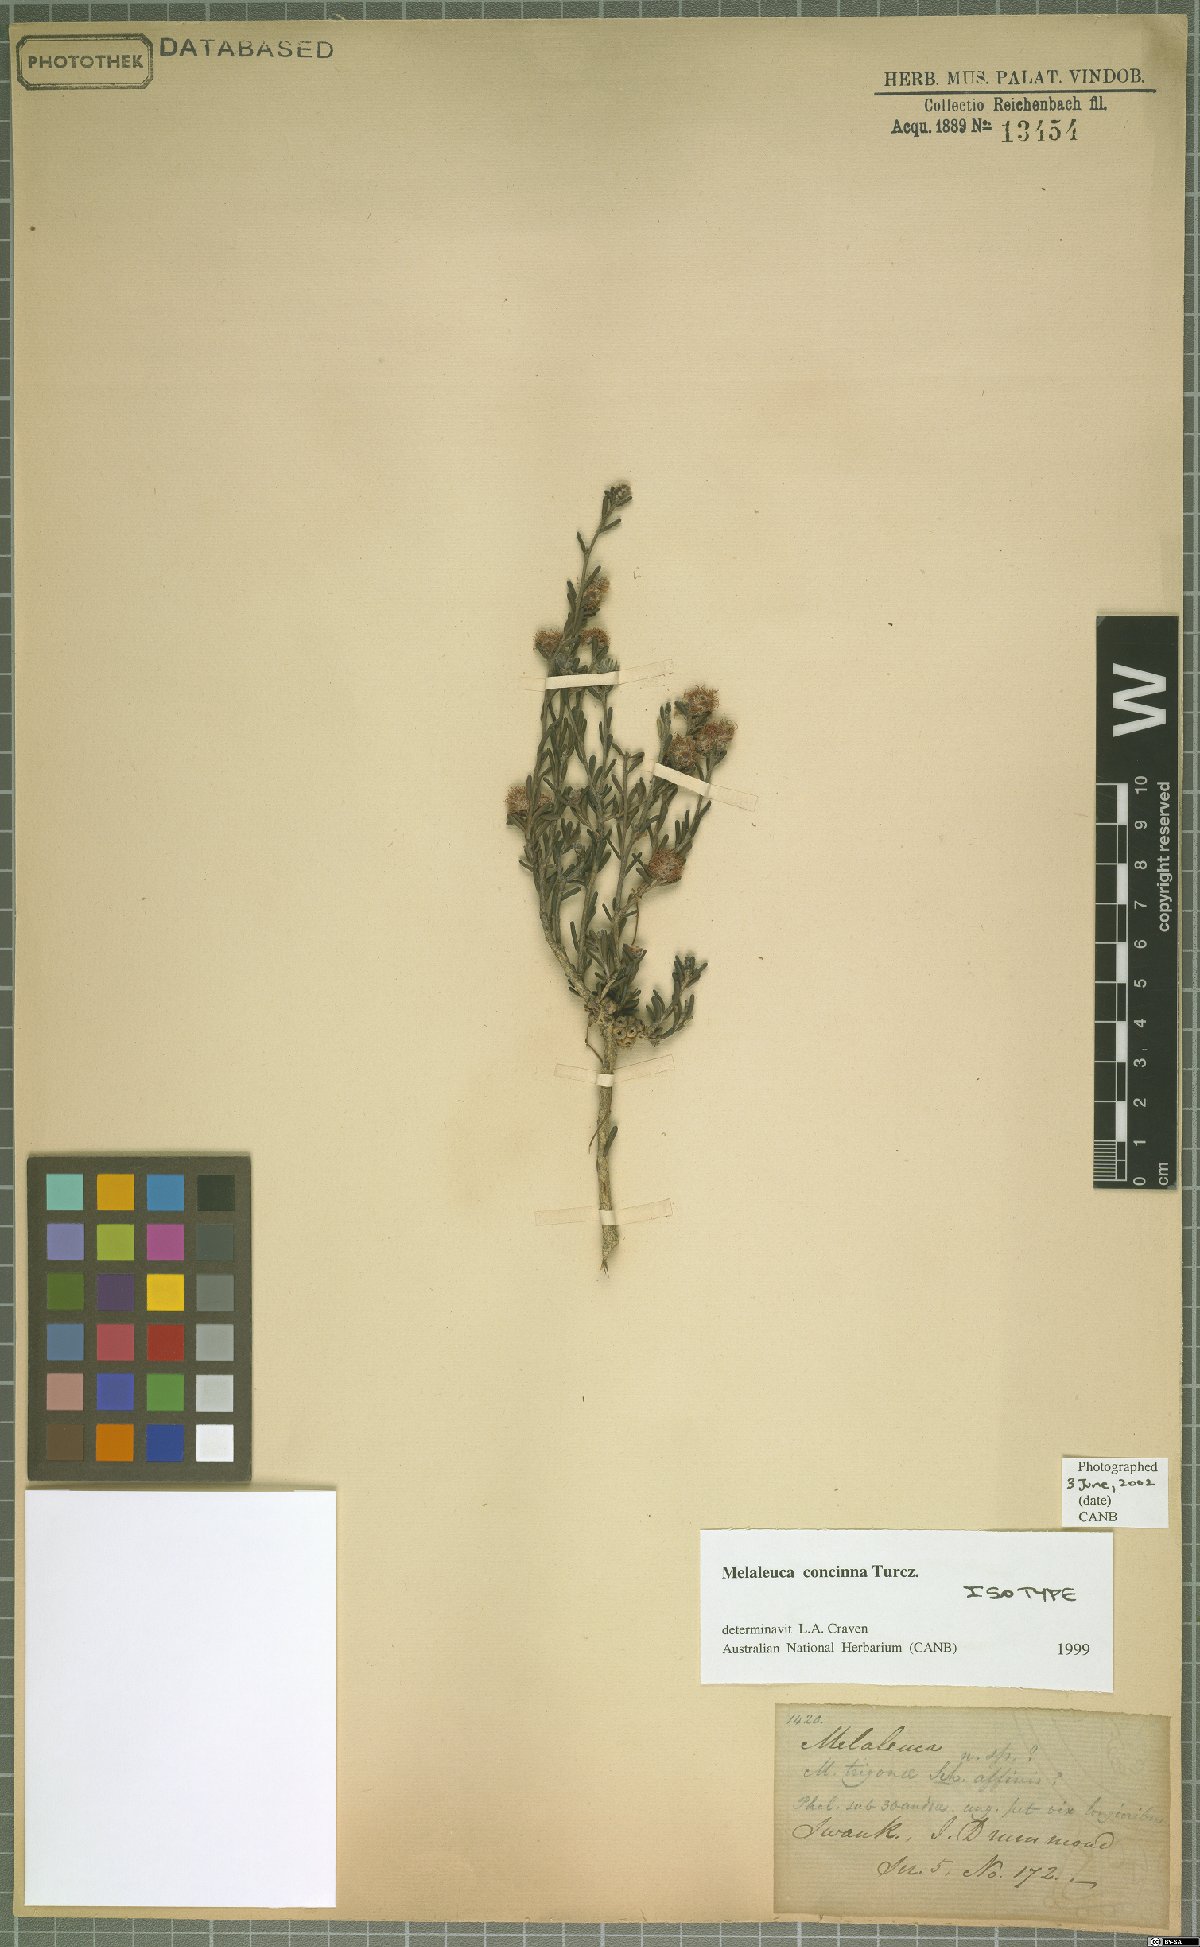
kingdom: Plantae
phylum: Tracheophyta
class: Magnoliopsida
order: Myrtales
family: Myrtaceae
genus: Melaleuca
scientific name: Melaleuca concinna
